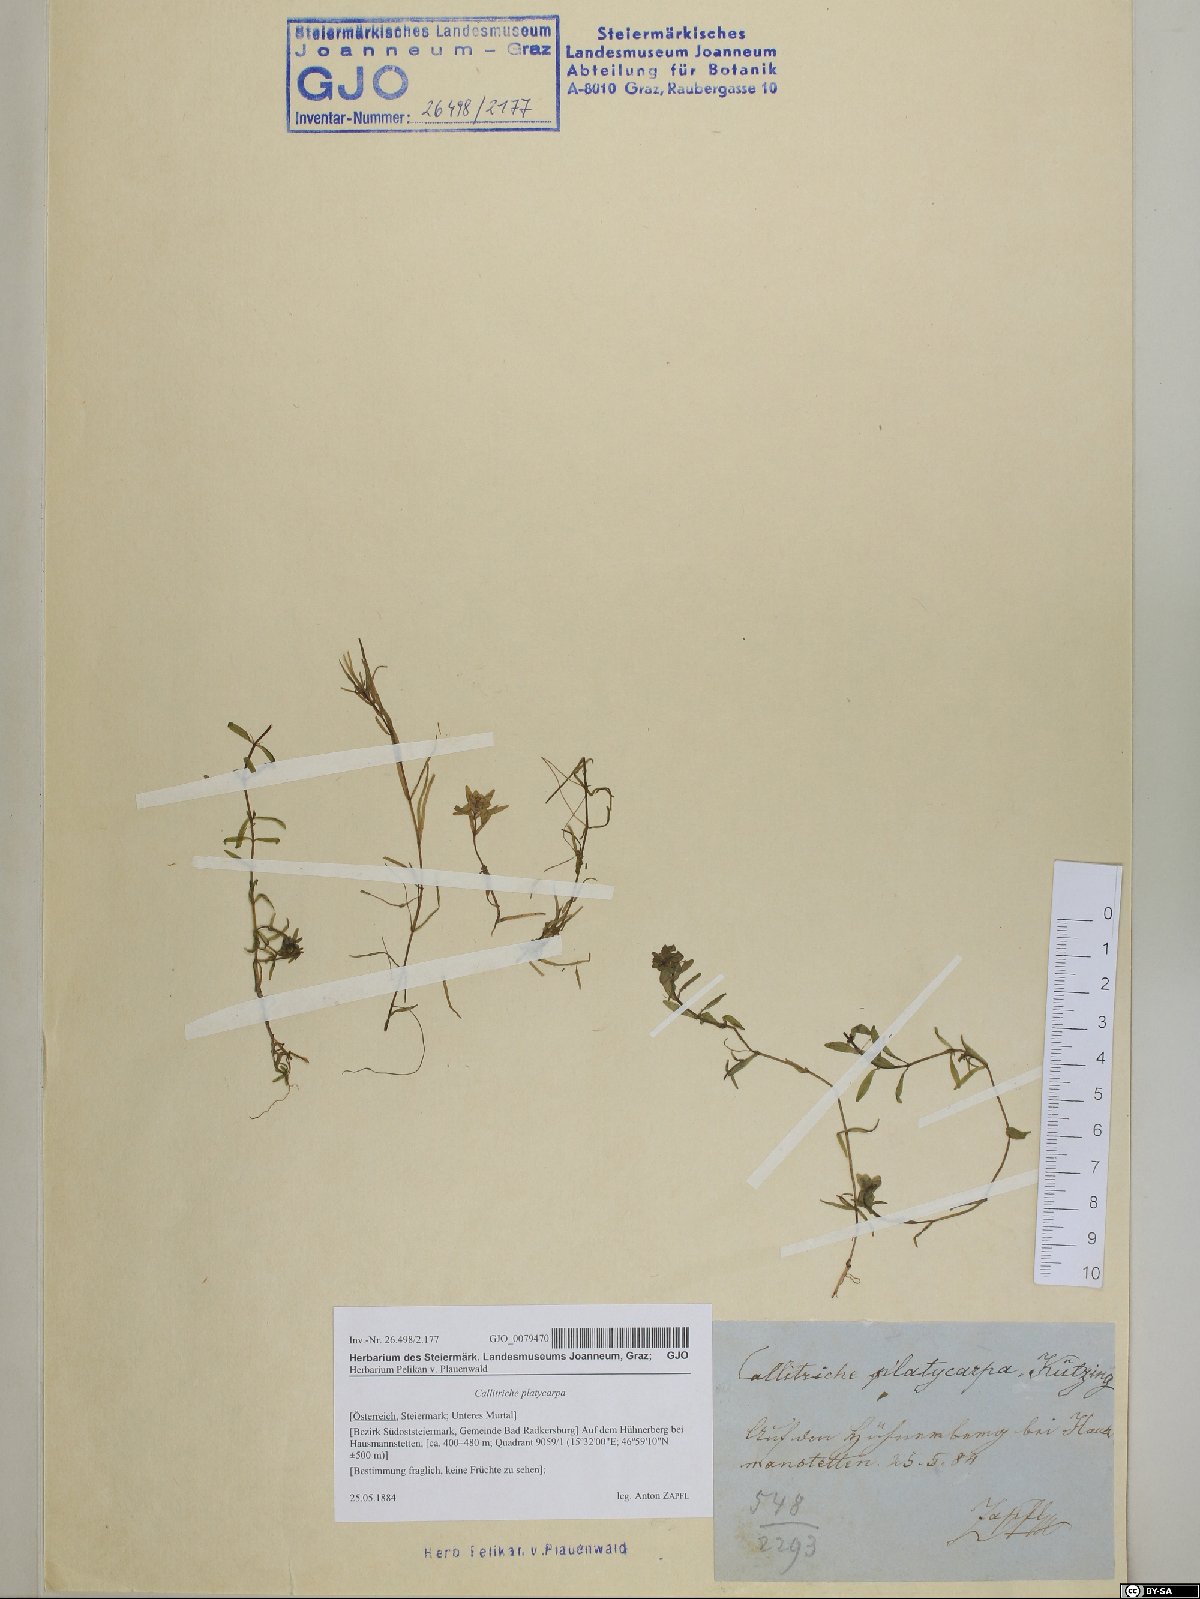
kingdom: Plantae
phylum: Tracheophyta
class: Magnoliopsida
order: Lamiales
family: Plantaginaceae
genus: Callitriche
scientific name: Callitriche platycarpa
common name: Various-leaved water-starwort
